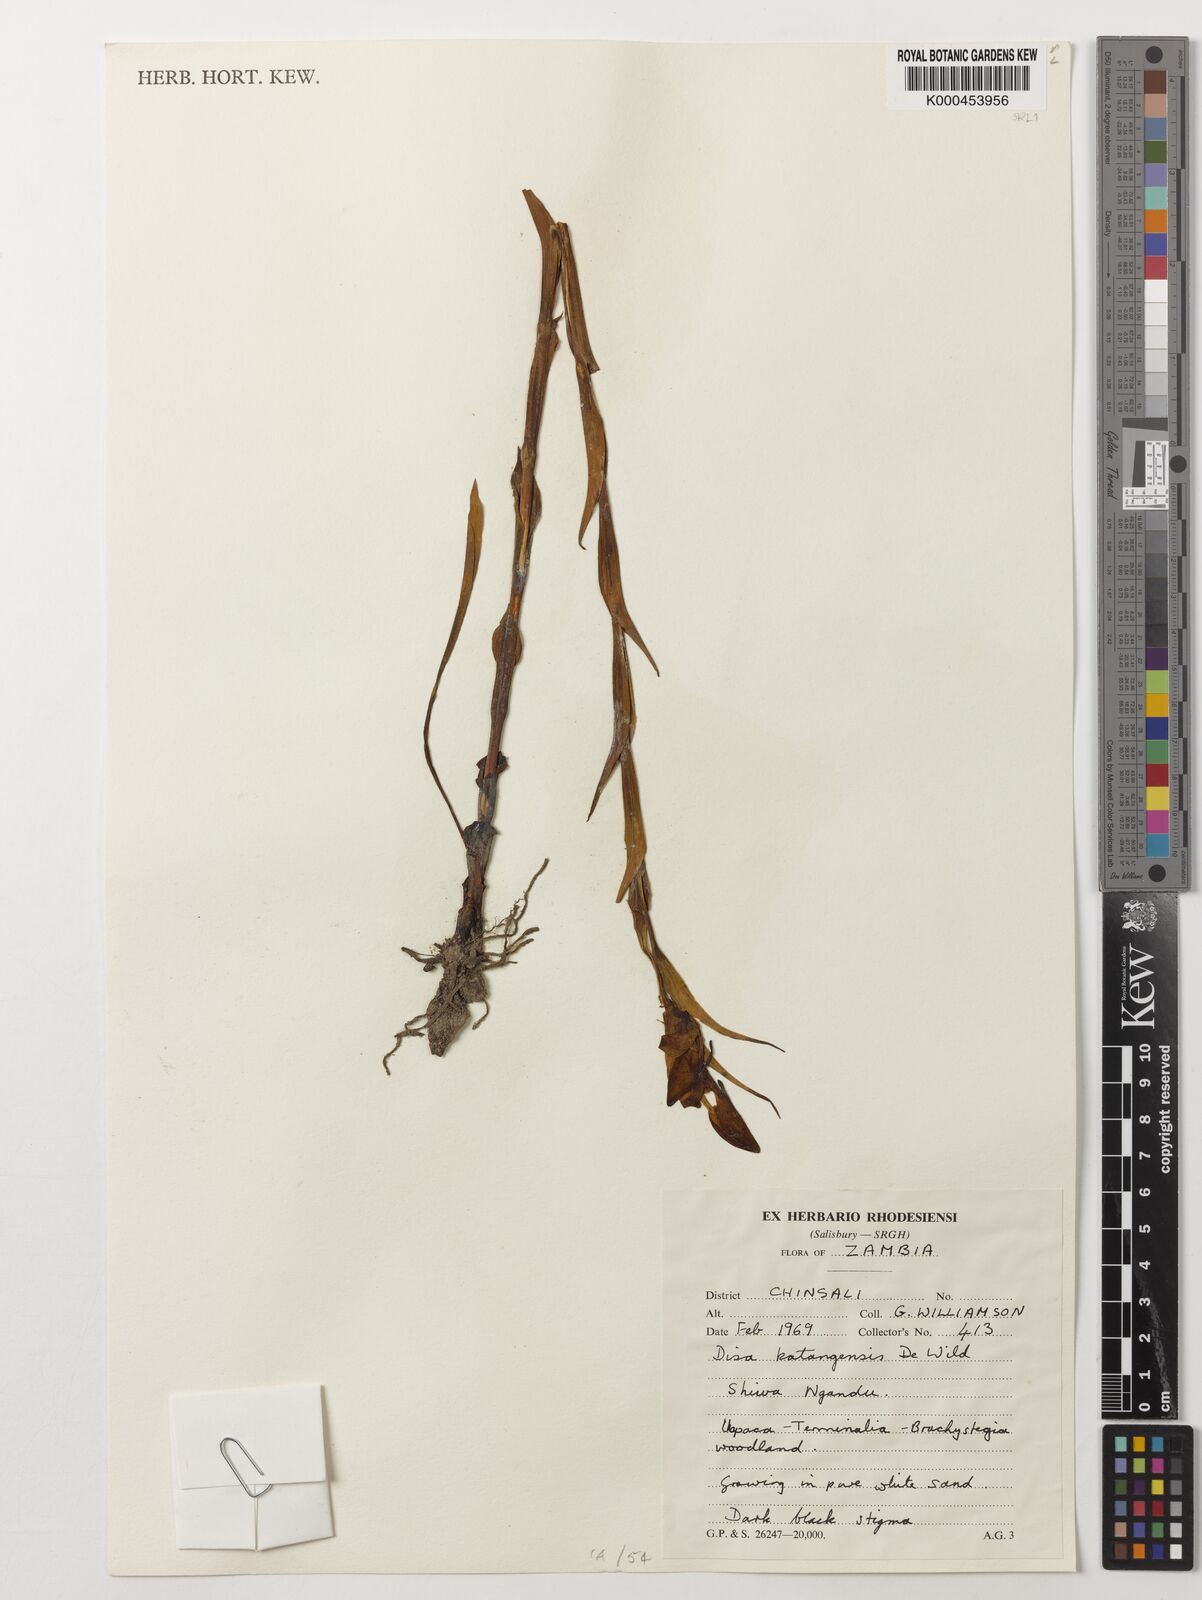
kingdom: Plantae
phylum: Tracheophyta
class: Liliopsida
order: Asparagales
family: Orchidaceae
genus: Disa
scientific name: Disa katangensis
